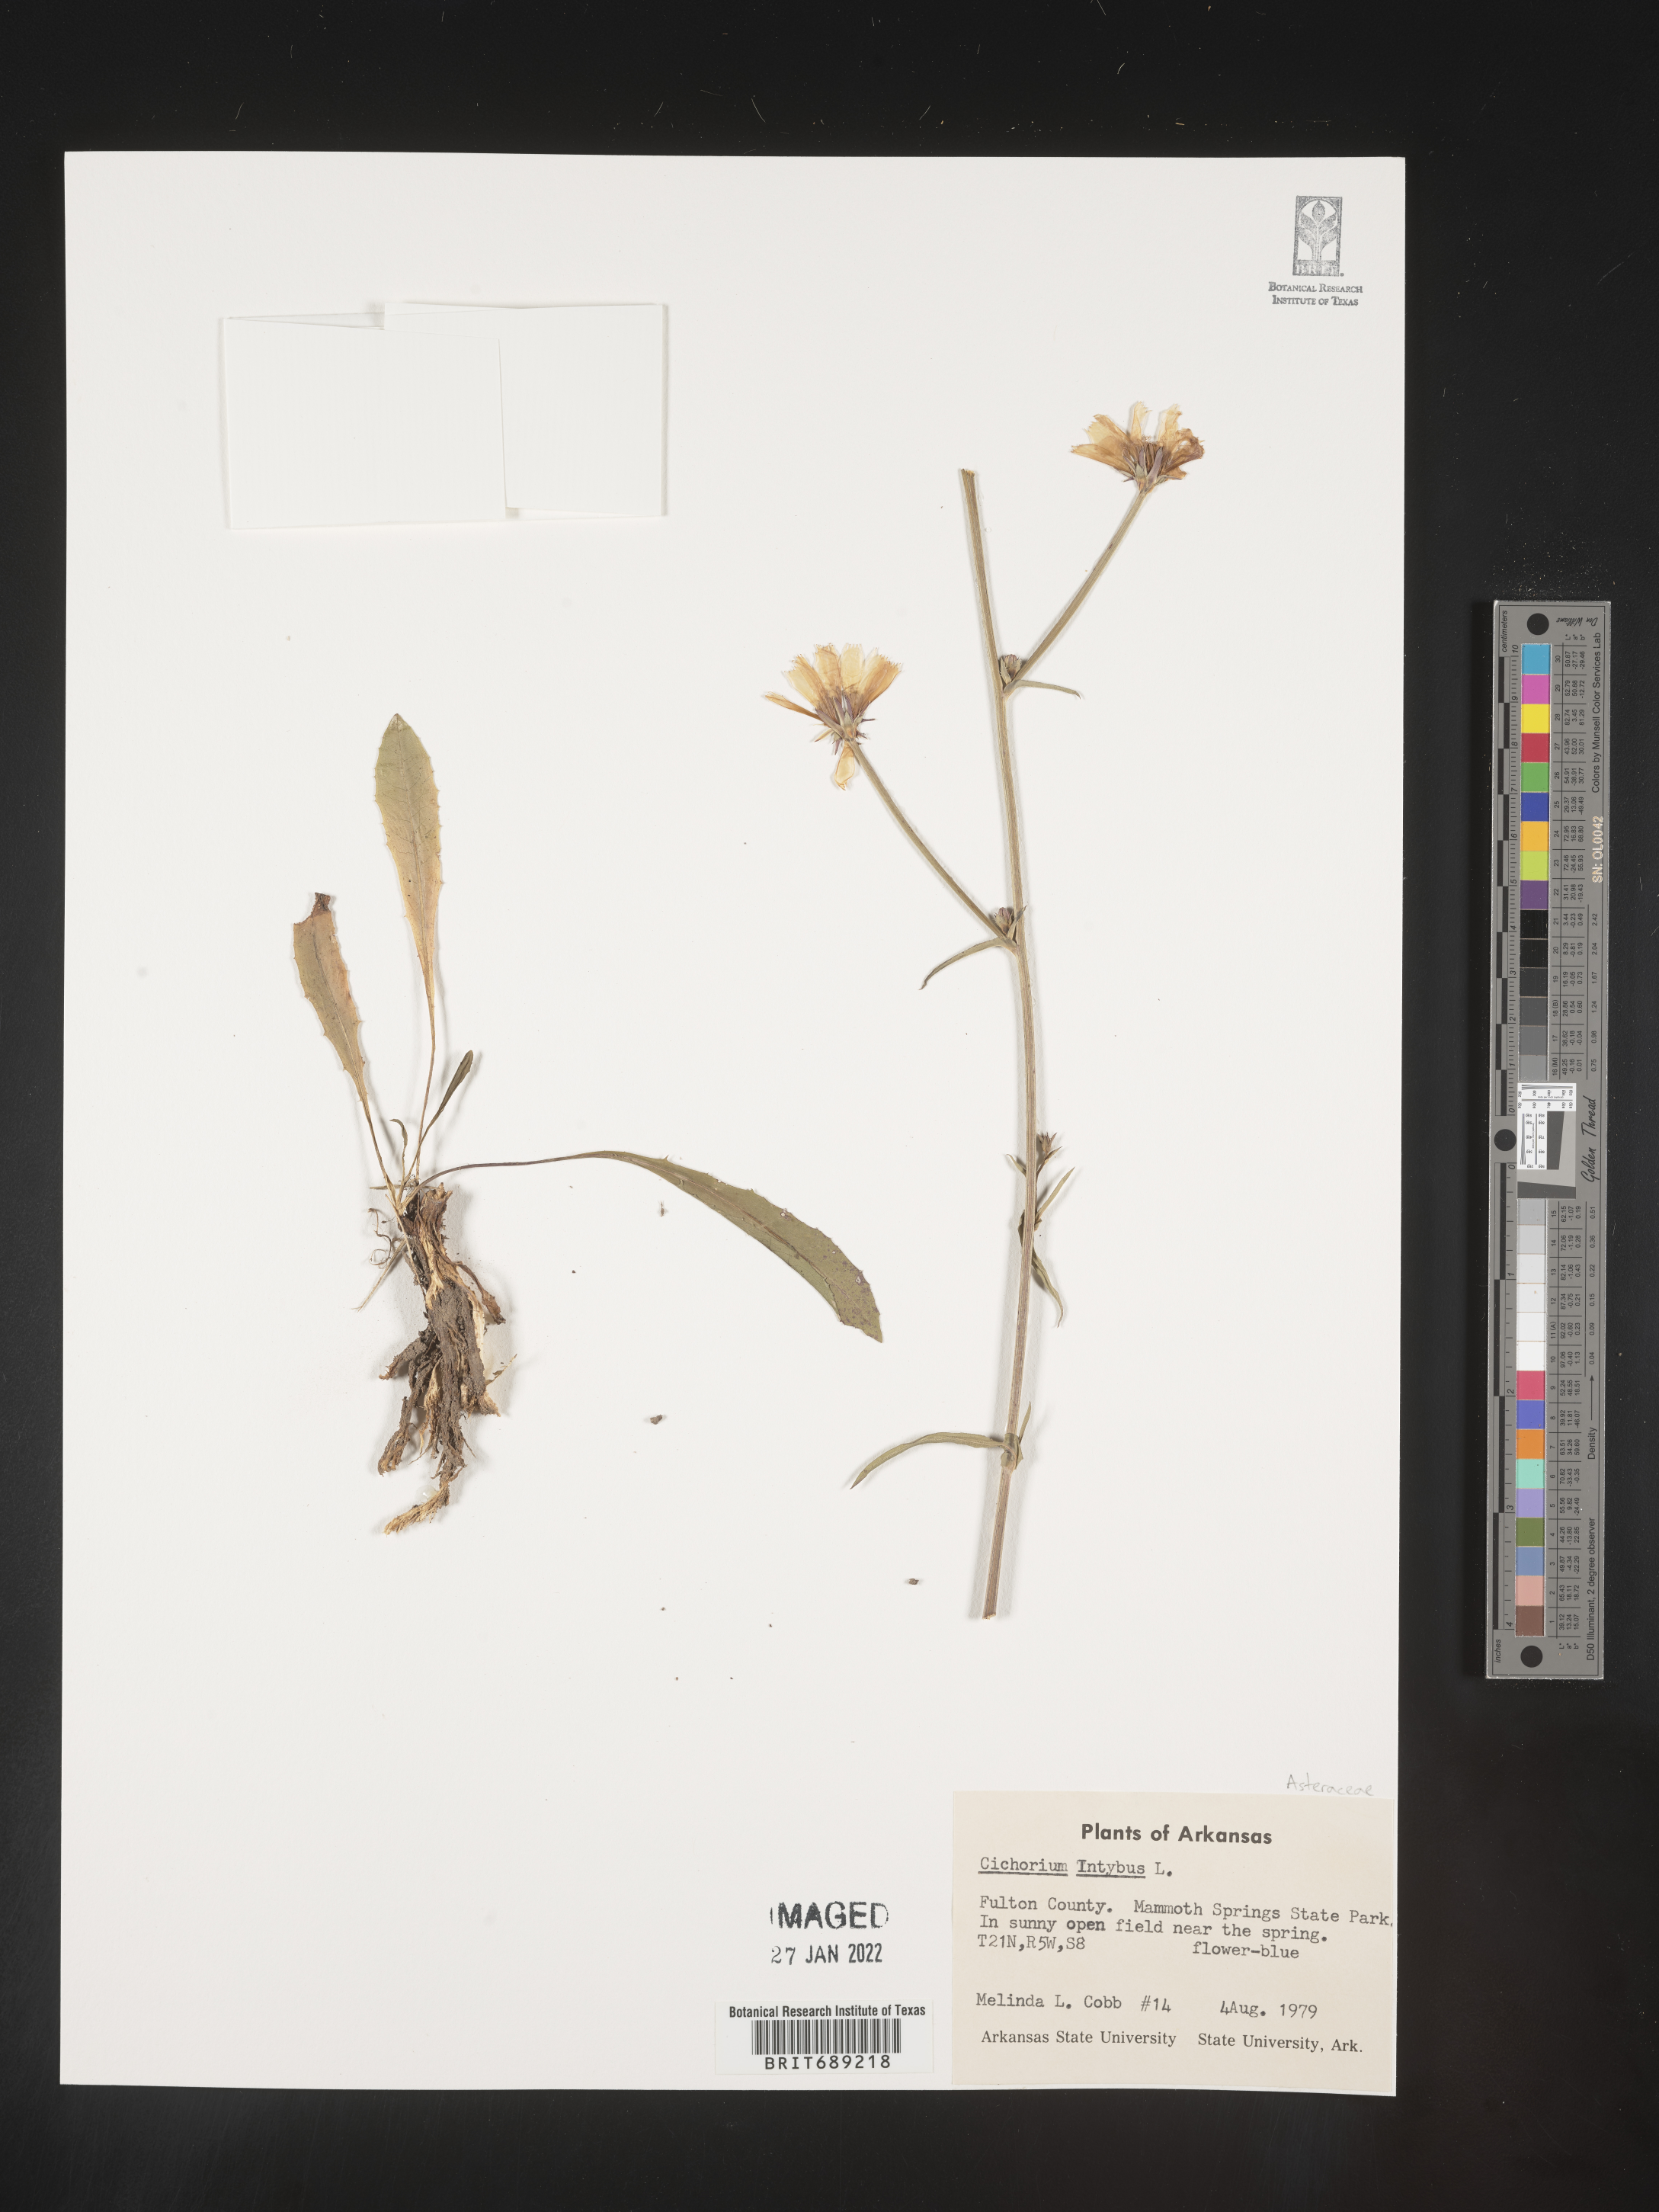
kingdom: Plantae
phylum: Tracheophyta
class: Magnoliopsida
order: Asterales
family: Asteraceae
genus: Cichorium
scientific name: Cichorium intybus
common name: Chicory
